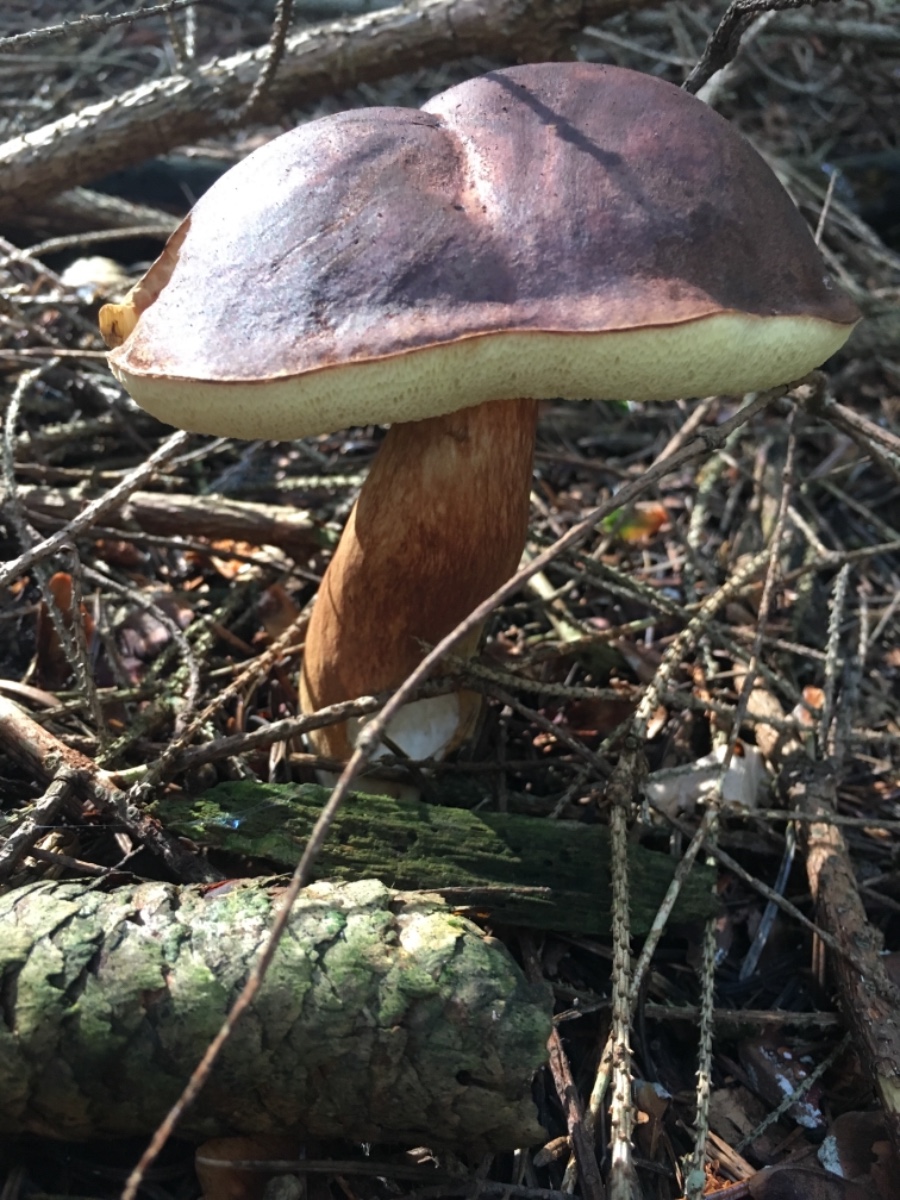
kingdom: Fungi
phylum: Basidiomycota
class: Agaricomycetes
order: Boletales
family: Boletaceae
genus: Imleria
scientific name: Imleria badia
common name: brunstokket rørhat
